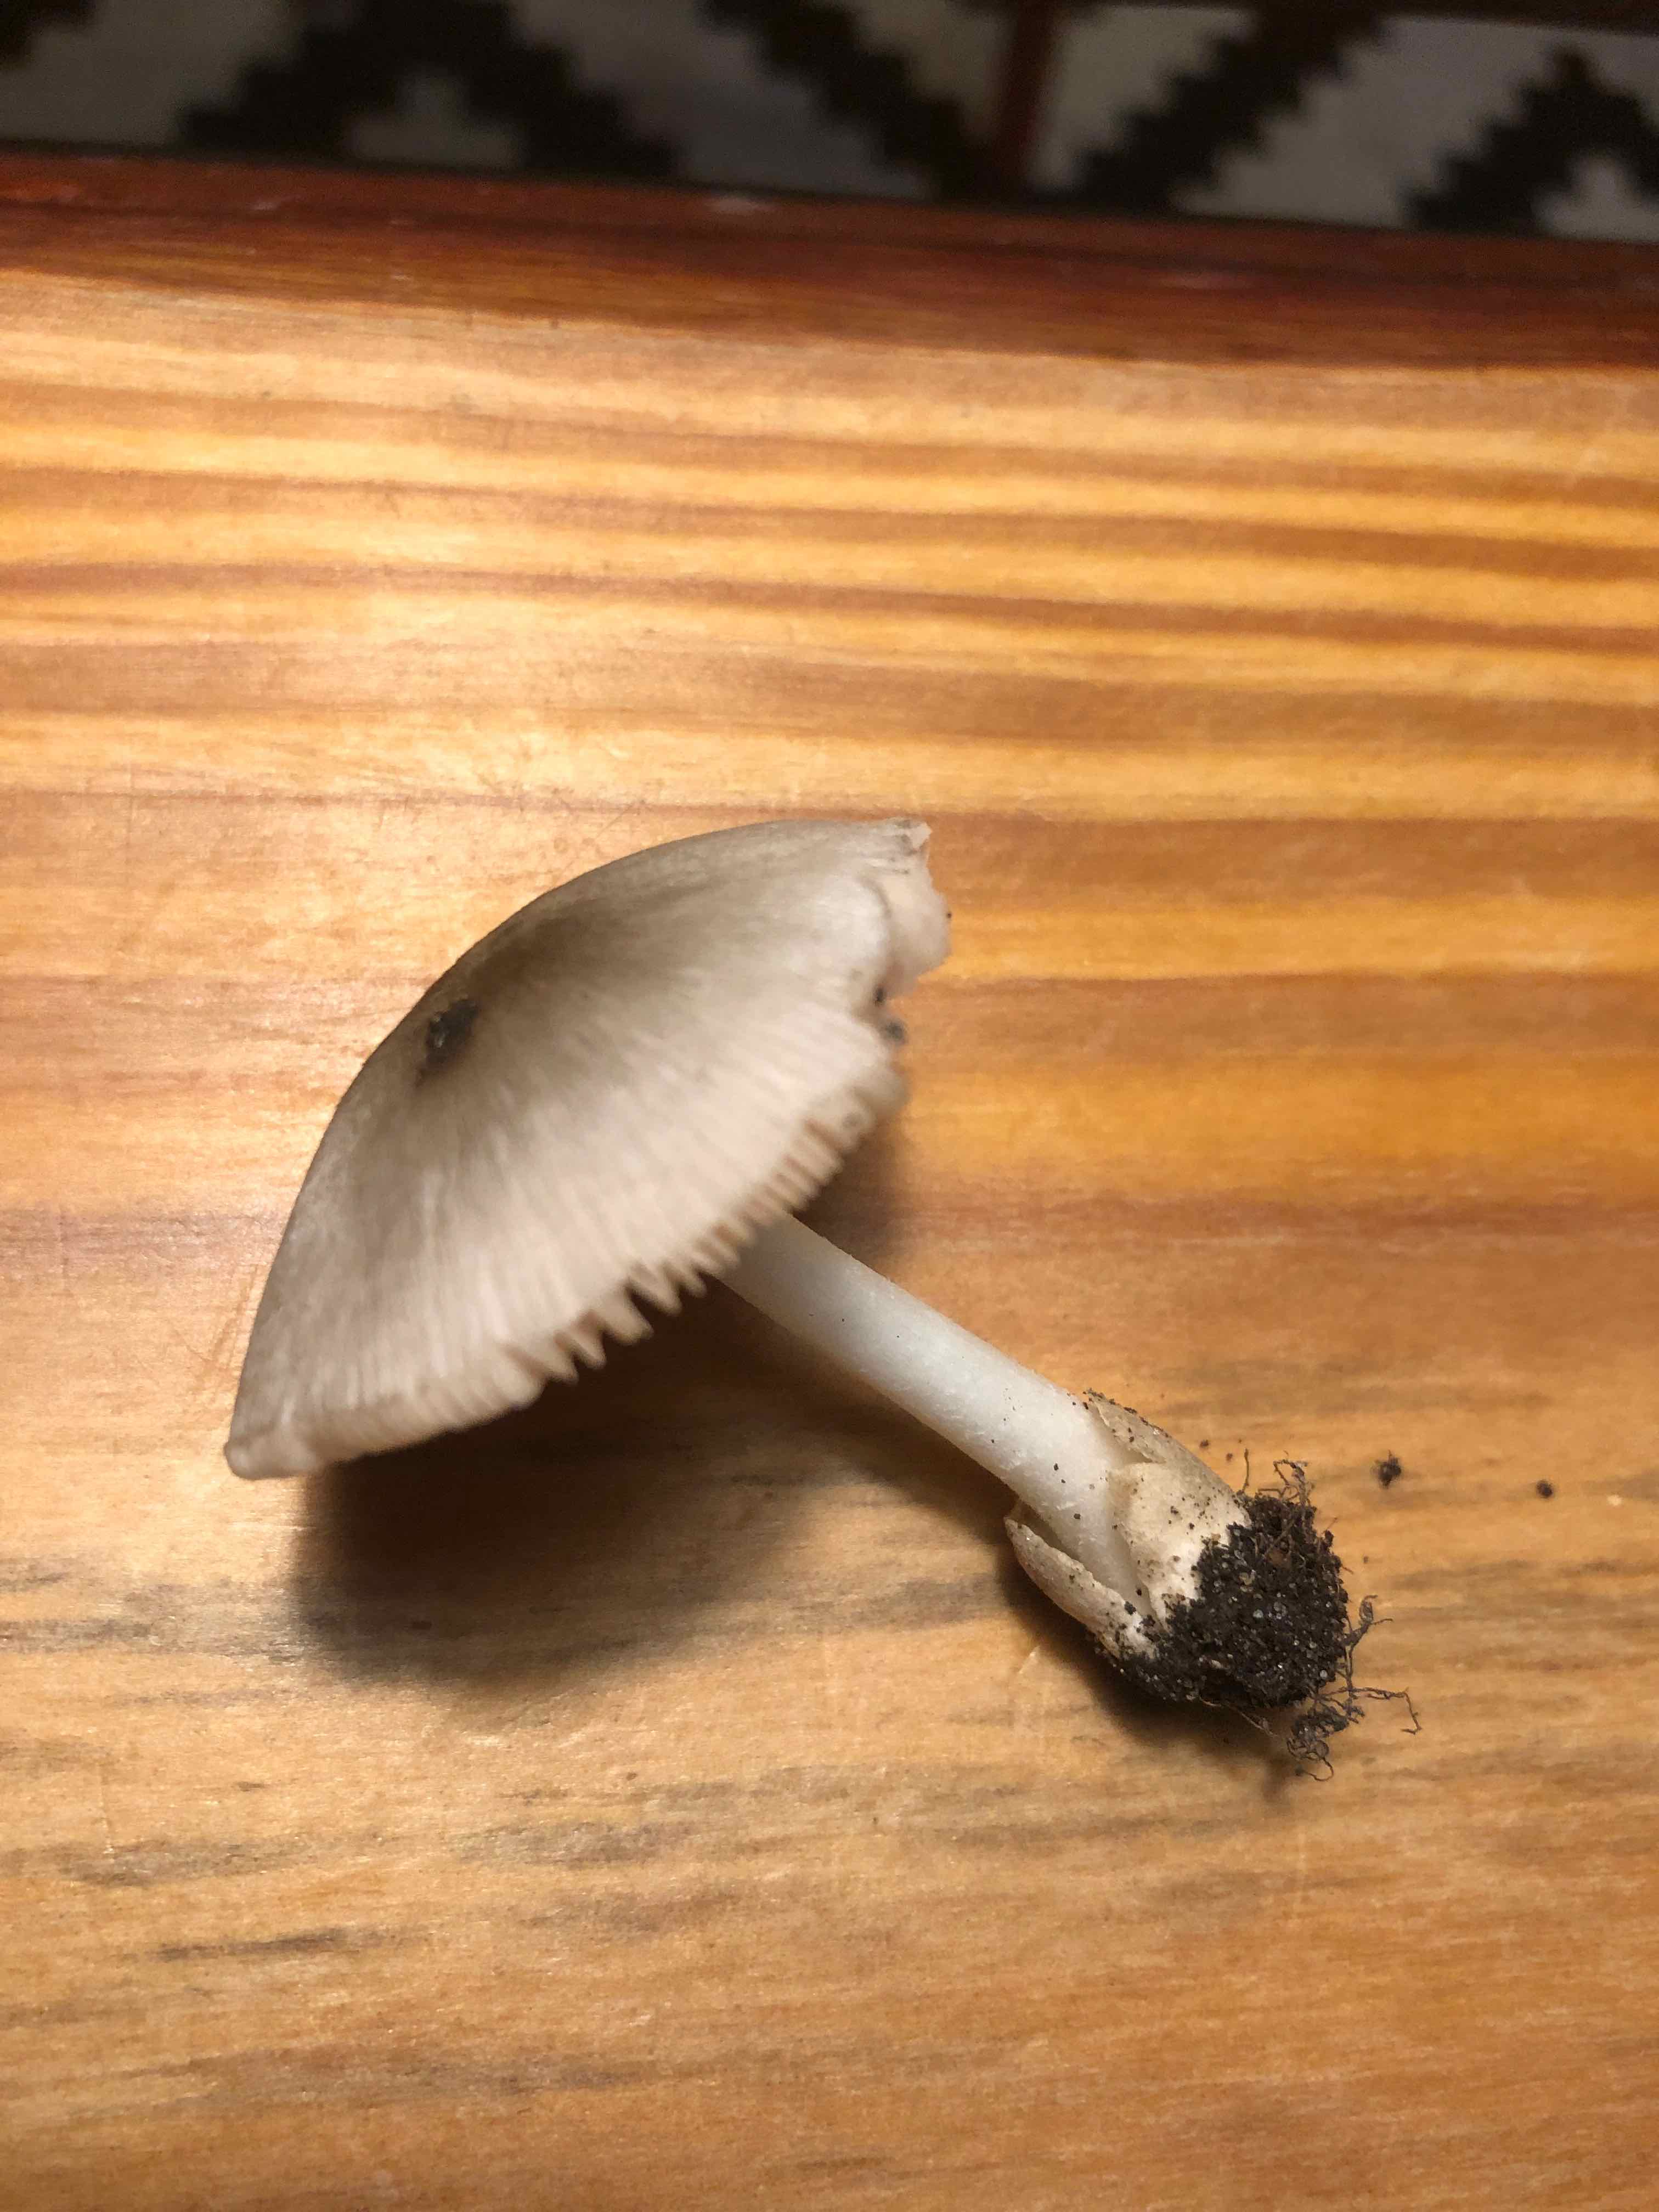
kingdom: Fungi
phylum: Basidiomycota
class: Agaricomycetes
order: Agaricales
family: Pluteaceae
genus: Volvariella
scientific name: Volvariella murinella
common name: musegrå posesvamp
